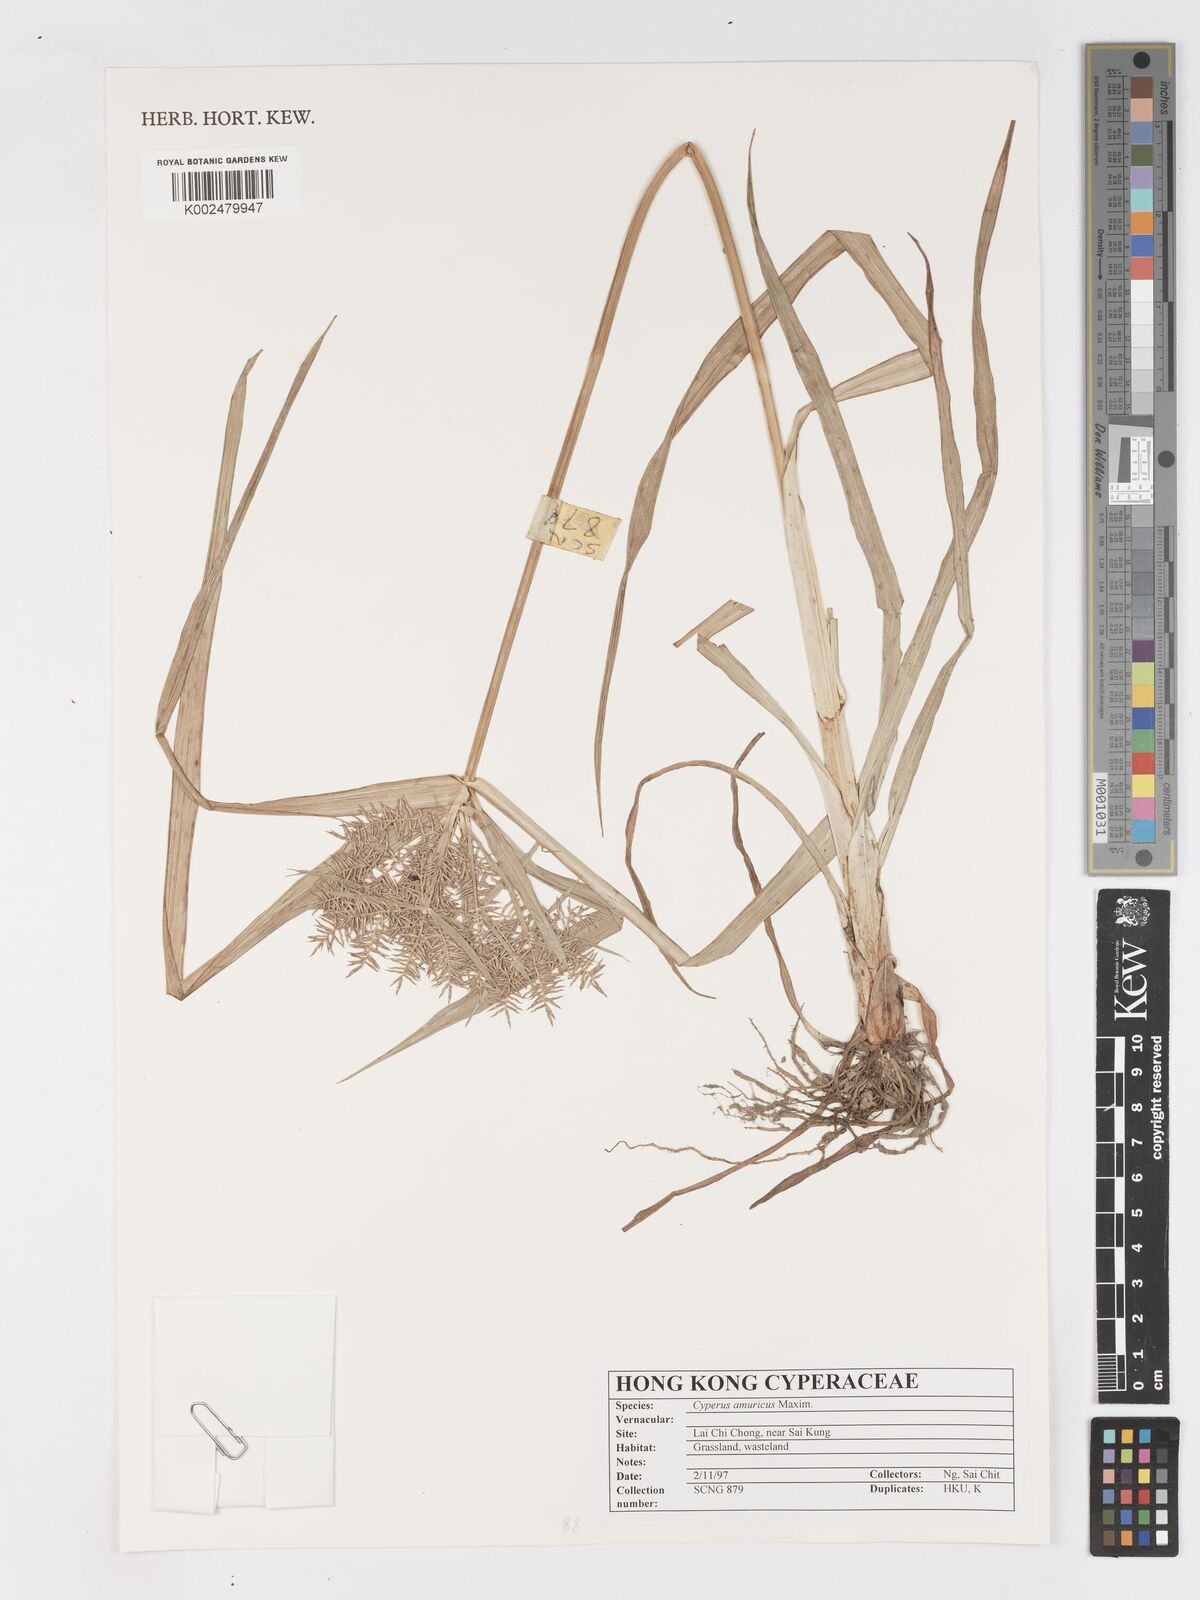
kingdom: Plantae
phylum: Tracheophyta
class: Liliopsida
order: Poales
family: Cyperaceae
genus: Cyperus
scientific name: Cyperus amuricus
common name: Asian flatsedge
